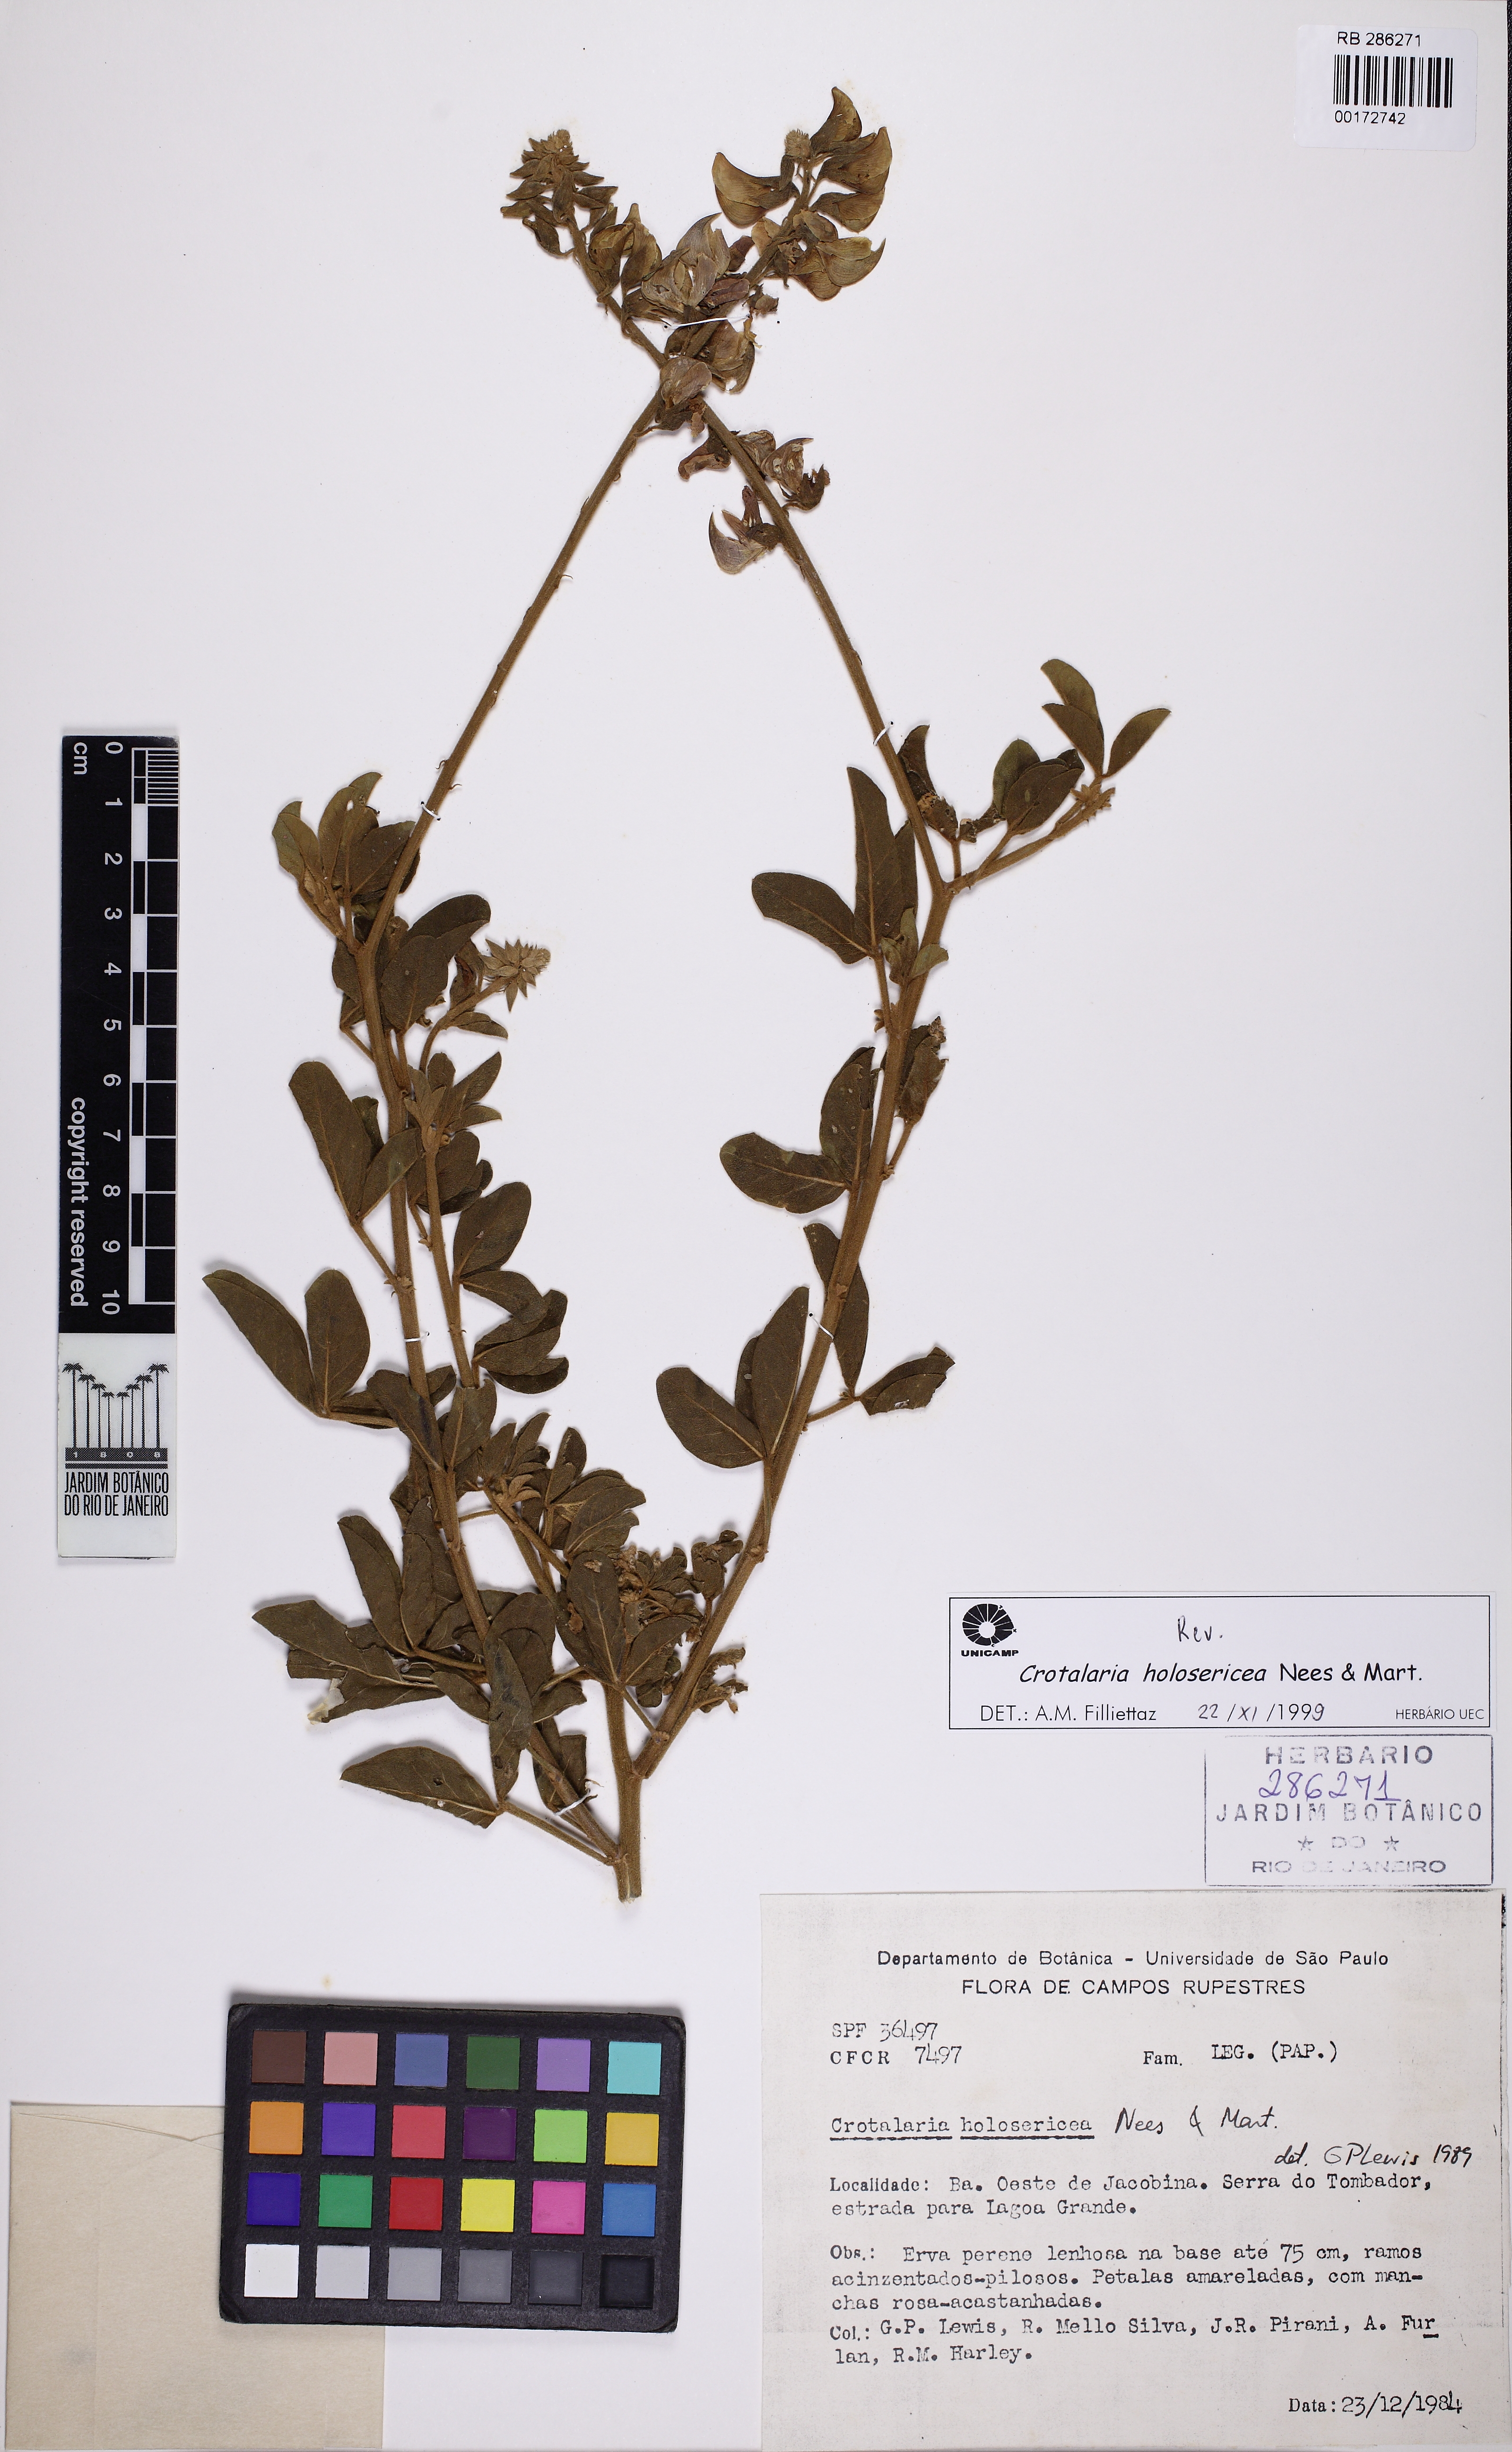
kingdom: Plantae
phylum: Tracheophyta
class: Magnoliopsida
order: Fabales
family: Fabaceae
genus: Crotalaria
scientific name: Crotalaria holosericea
